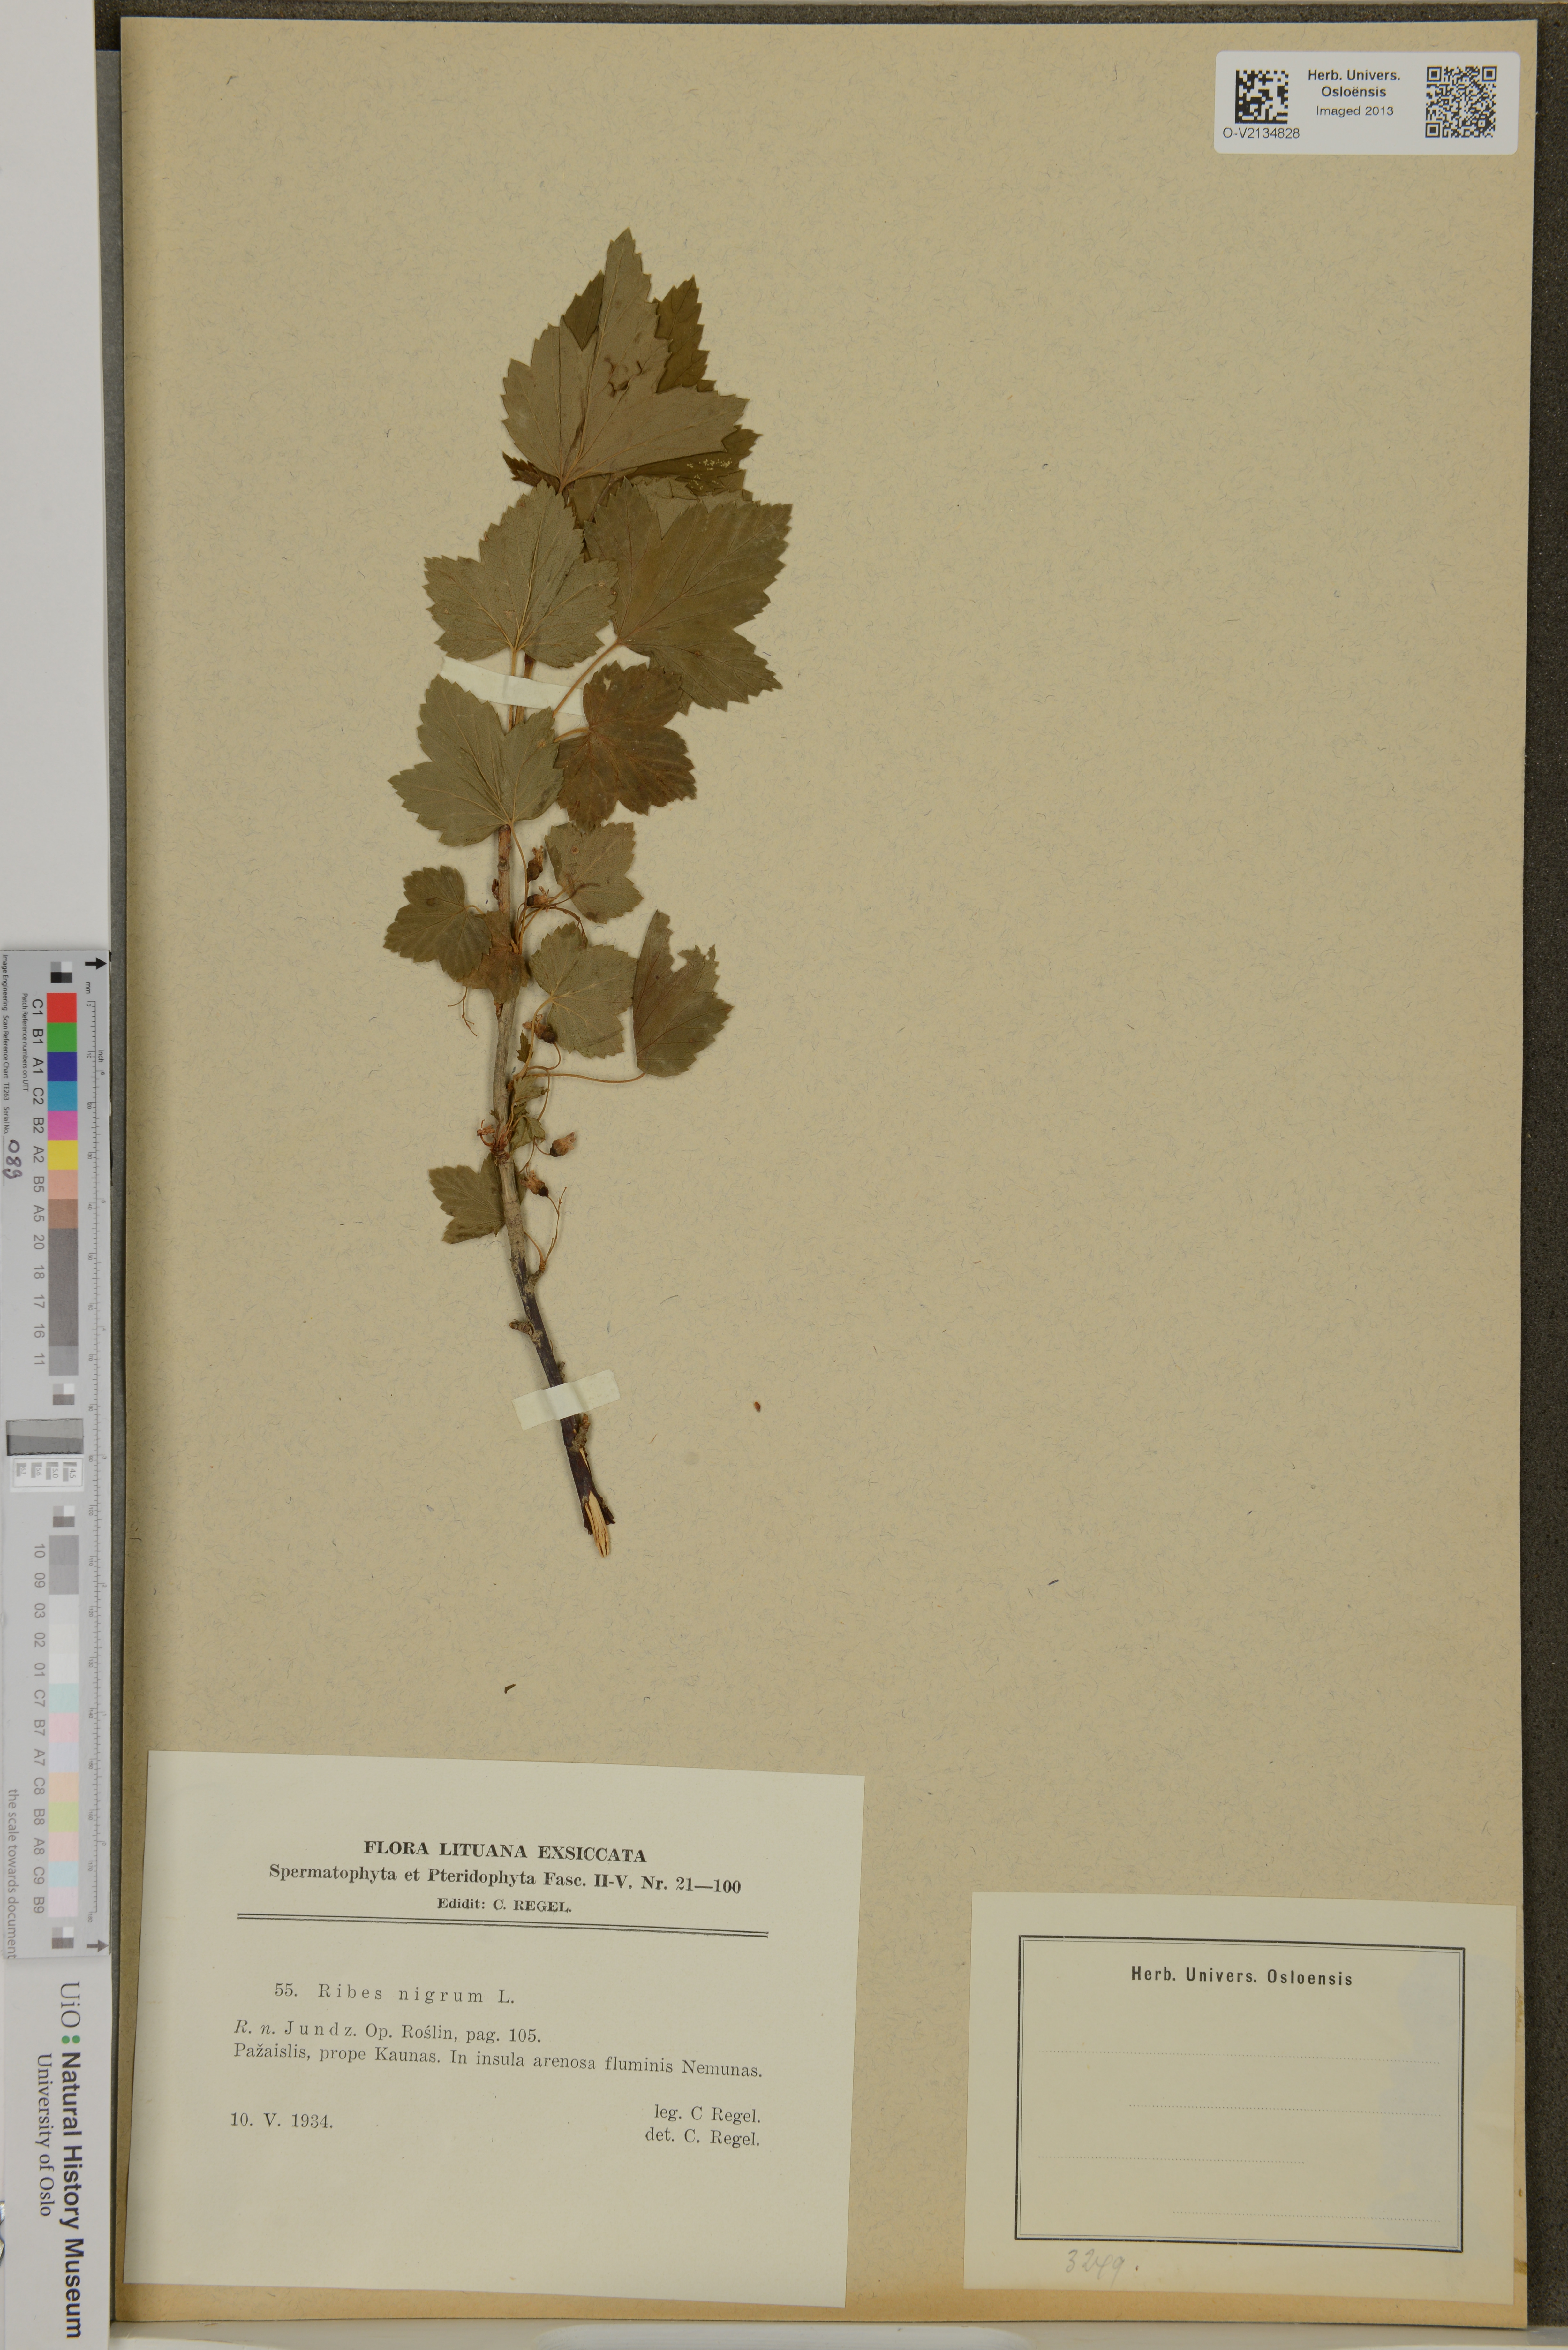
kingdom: Plantae
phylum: Tracheophyta
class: Magnoliopsida
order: Saxifragales
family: Grossulariaceae
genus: Ribes
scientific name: Ribes nigrum
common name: Black currant
